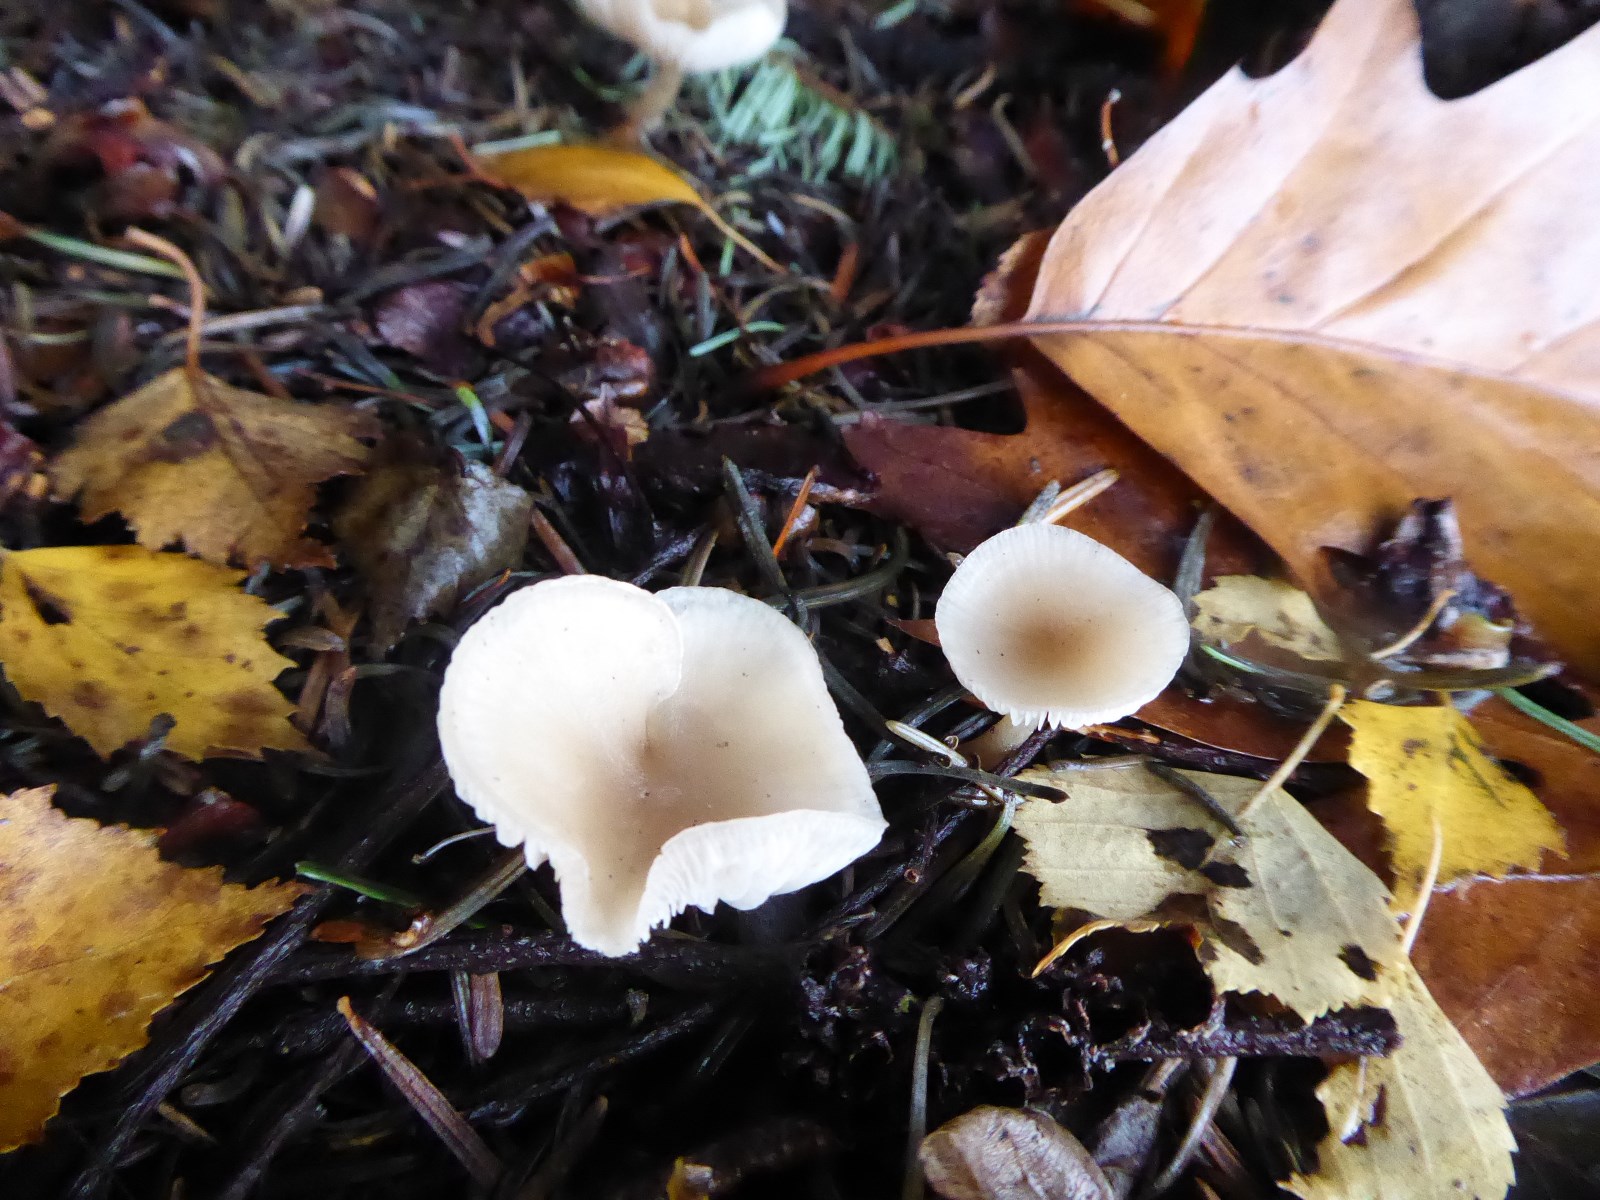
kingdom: Fungi
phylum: Basidiomycota
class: Agaricomycetes
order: Agaricales
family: Tricholomataceae
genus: Clitocybe
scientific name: Clitocybe fragrans
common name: vellugtende tragthat
